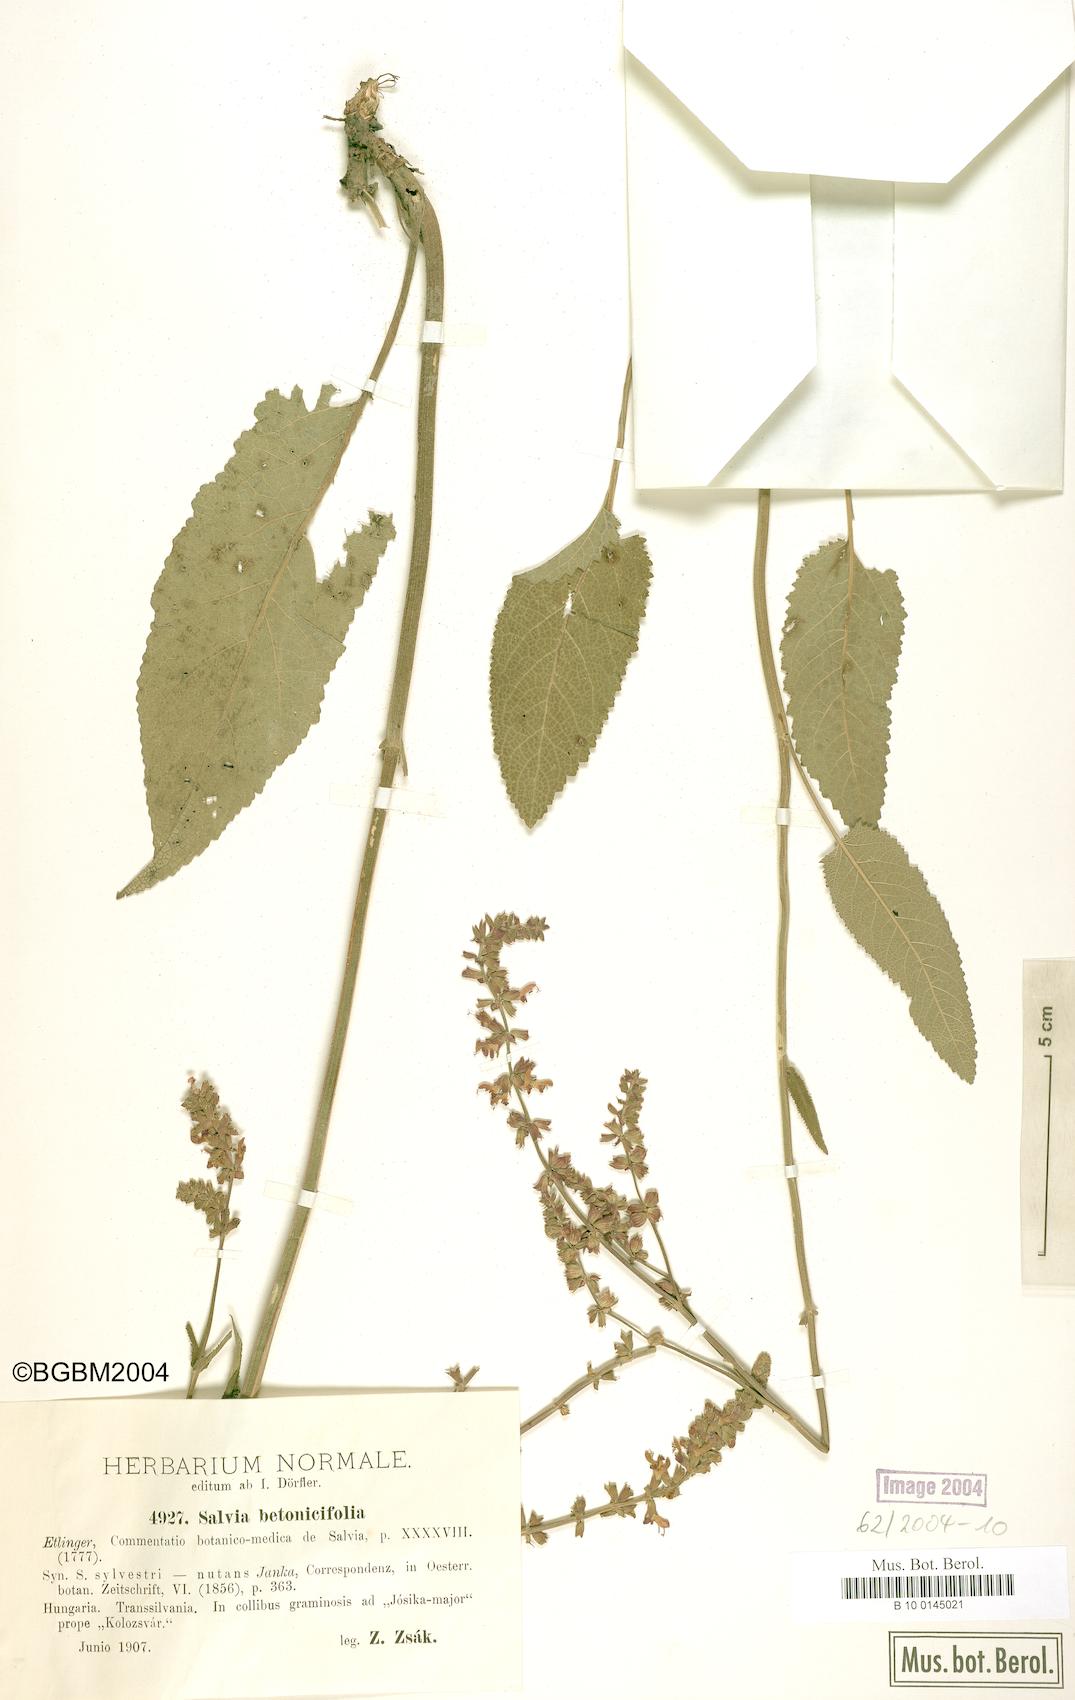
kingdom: Plantae
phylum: Tracheophyta
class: Magnoliopsida
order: Lamiales
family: Lamiaceae
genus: Salvia
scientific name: Salvia nutans
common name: Nodding sage
